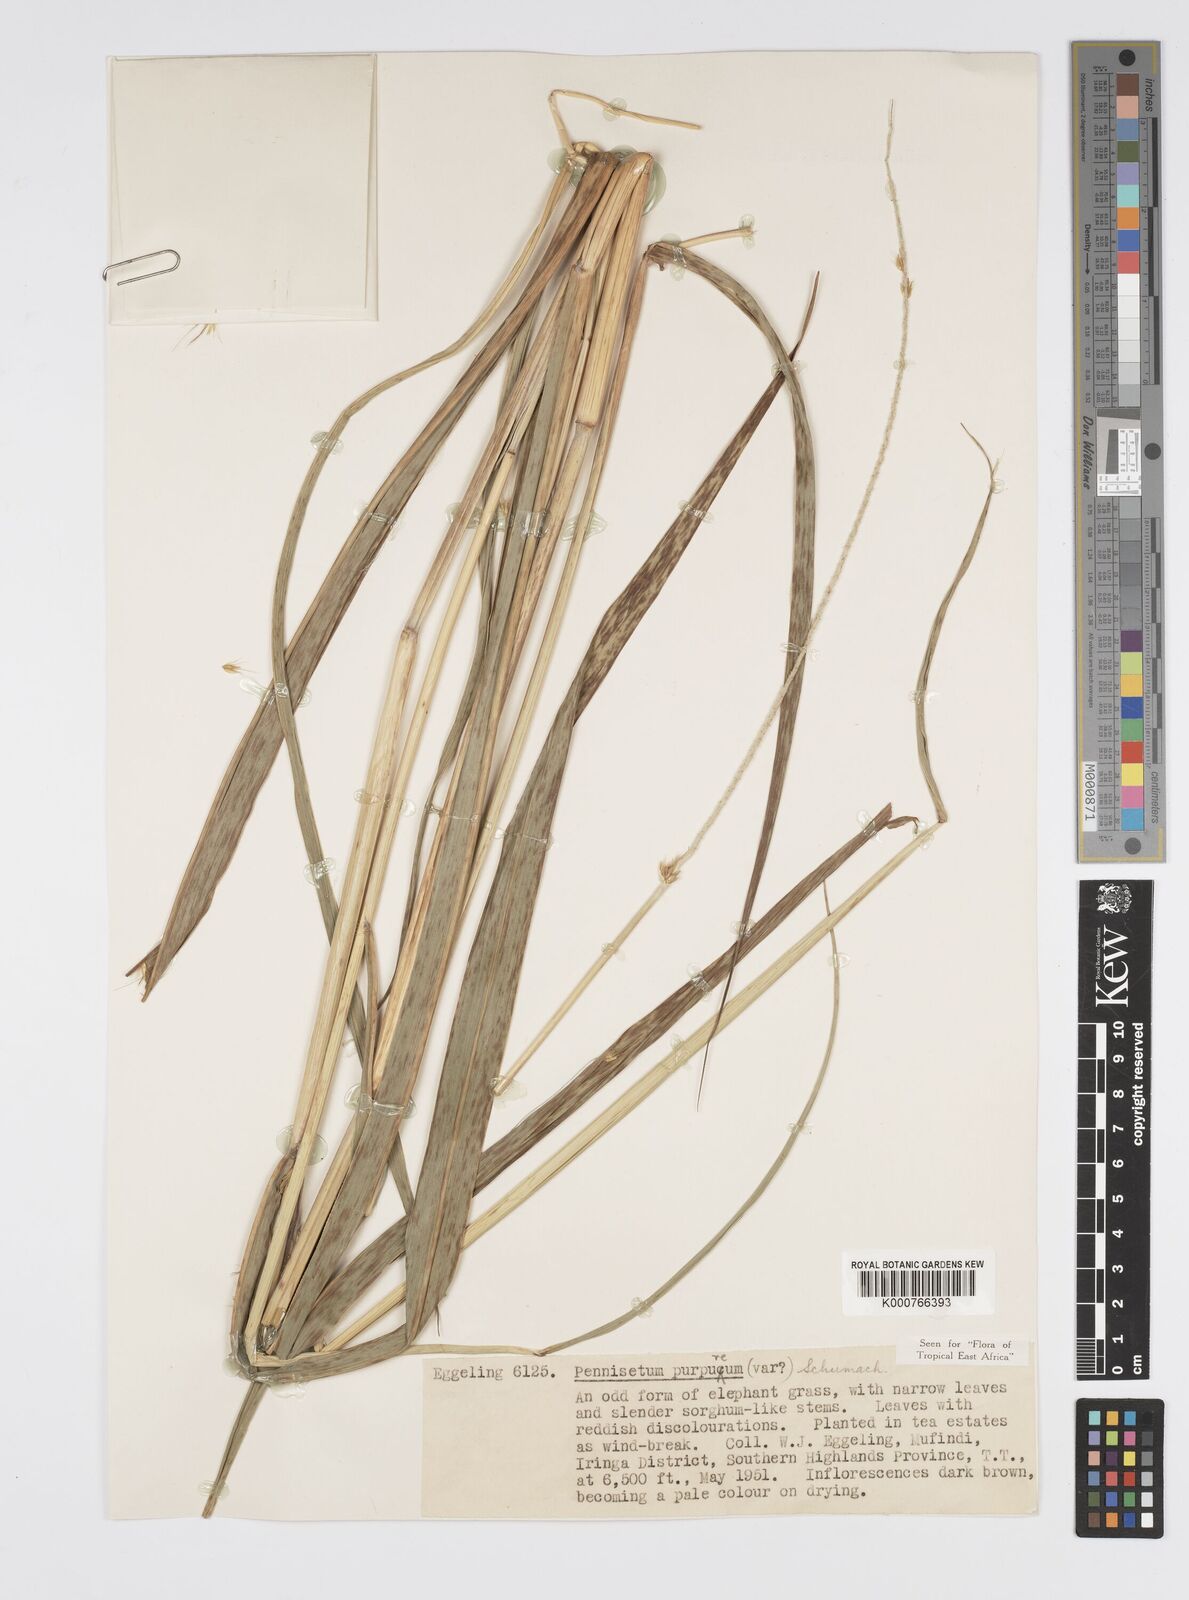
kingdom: Plantae
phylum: Tracheophyta
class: Liliopsida
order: Poales
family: Poaceae
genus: Cenchrus
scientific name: Cenchrus purpureus
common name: Elephant grass
